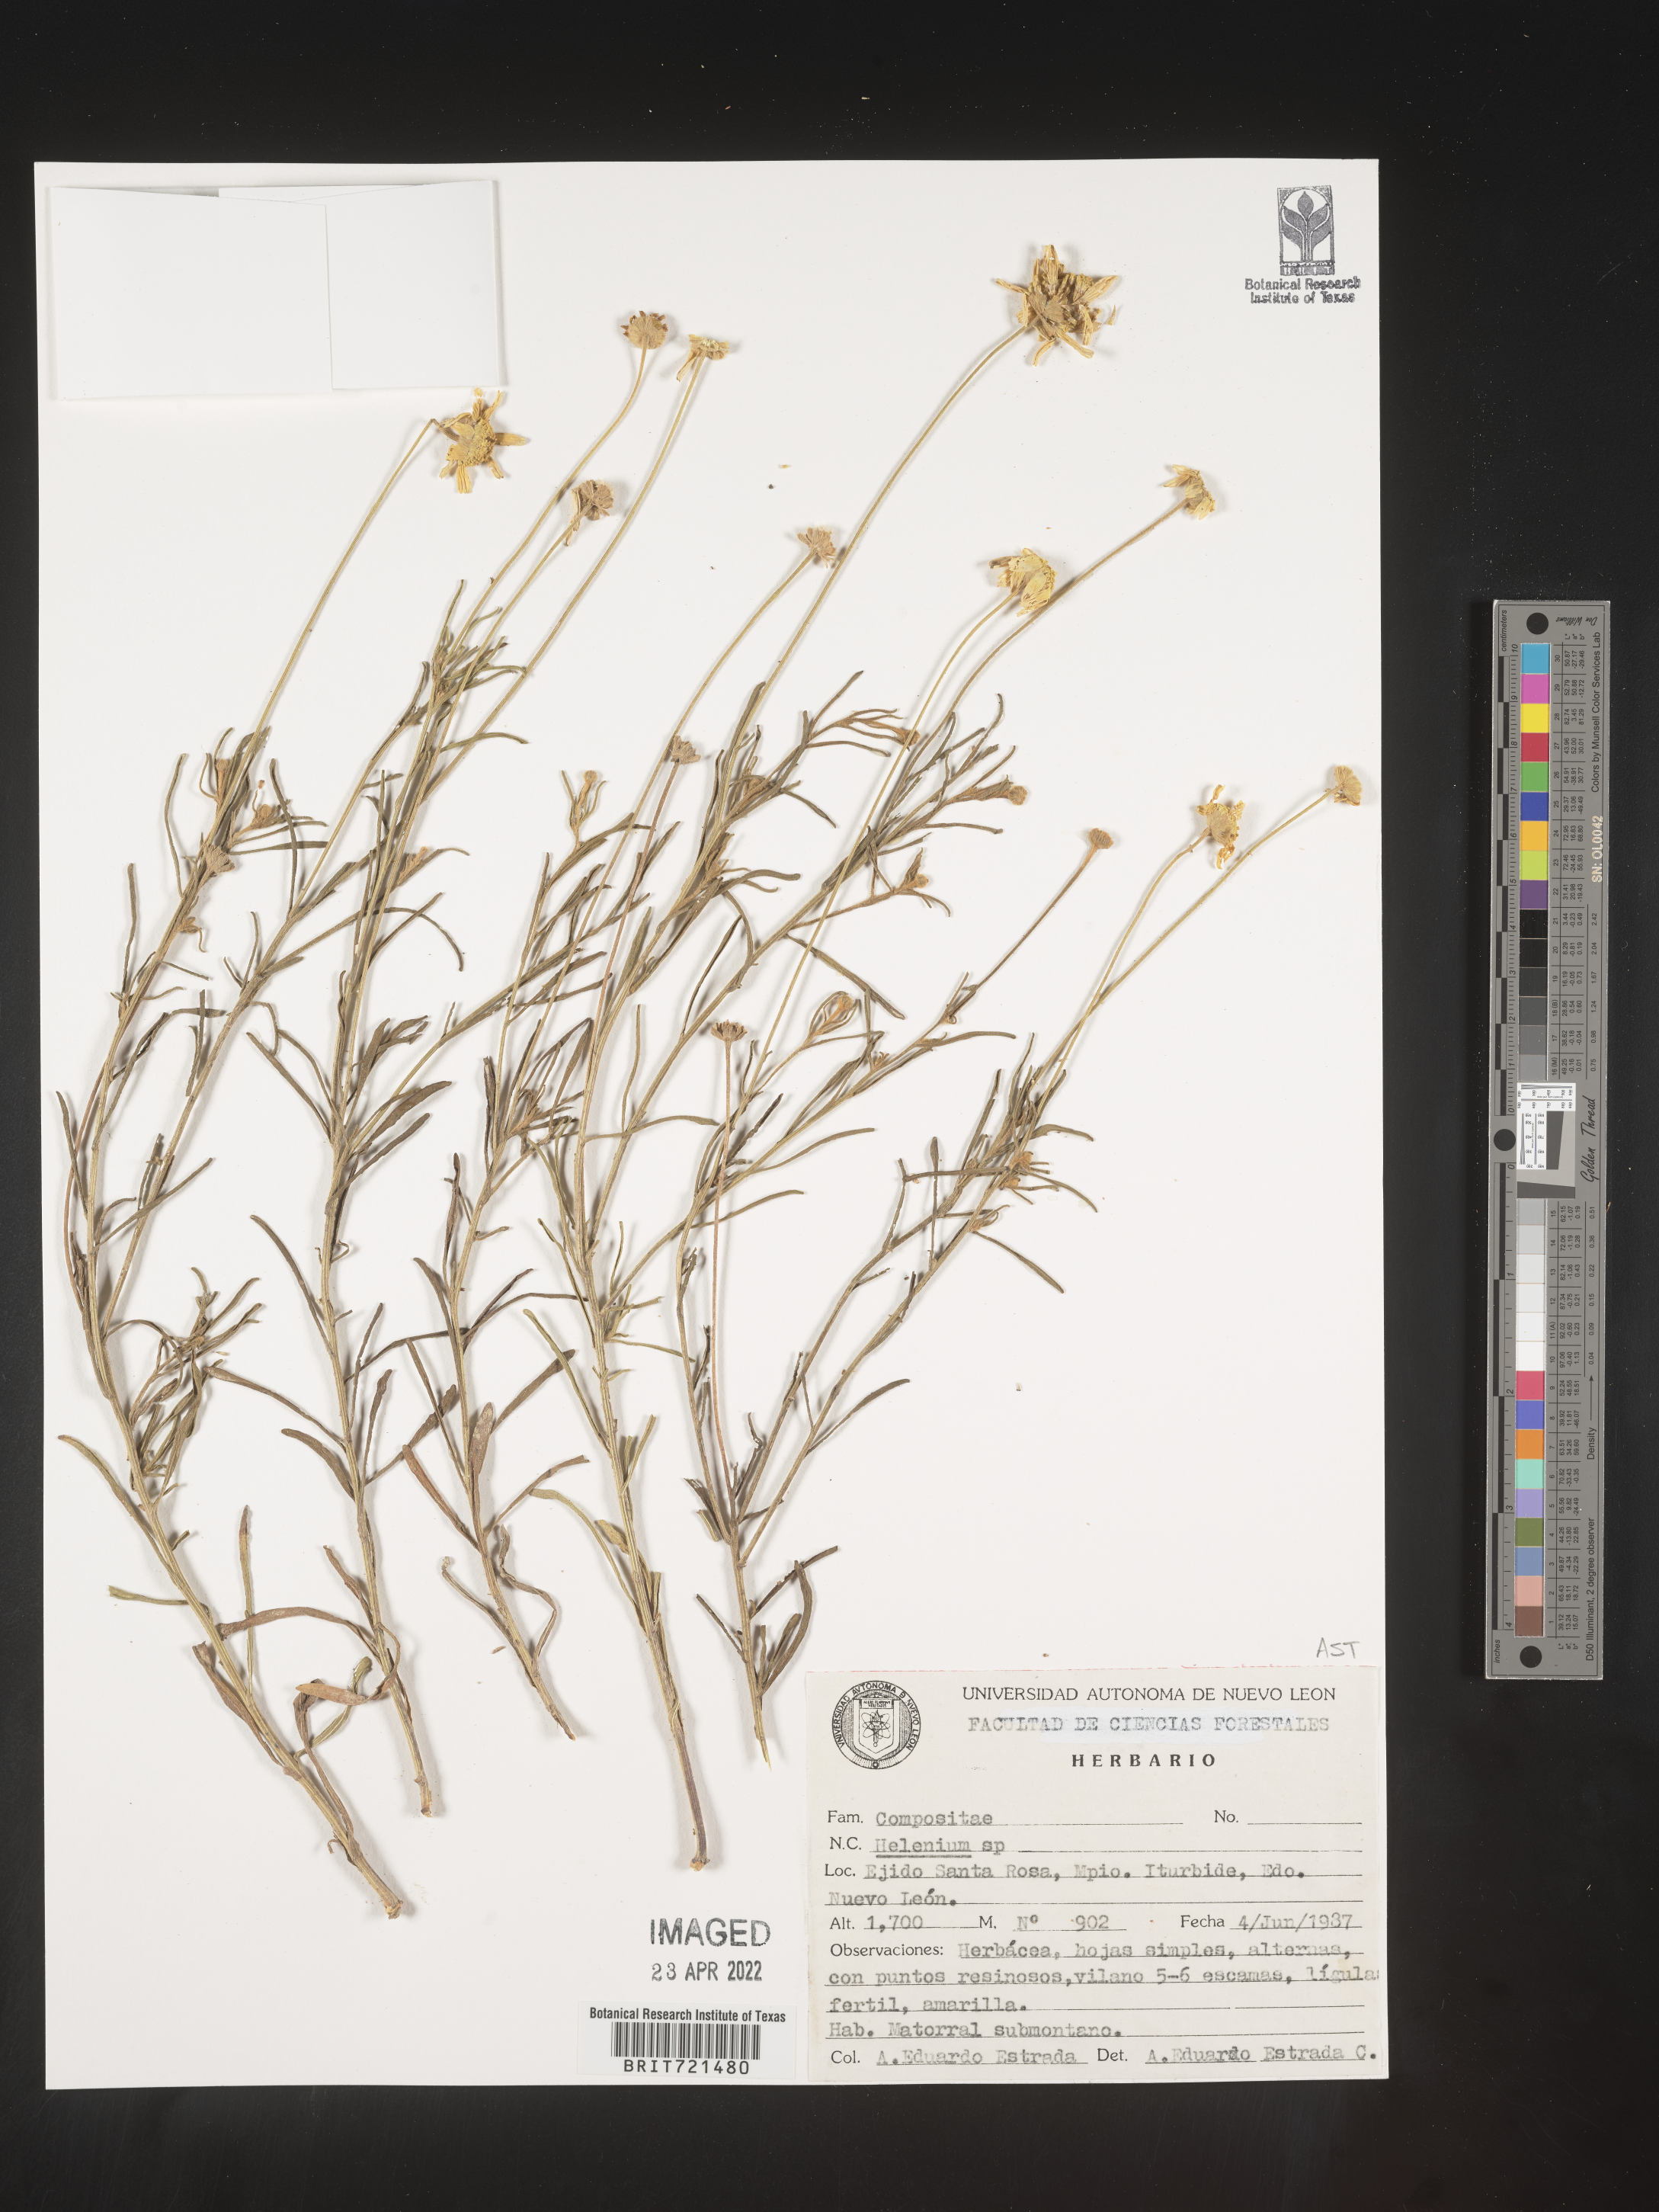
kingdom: Plantae
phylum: Tracheophyta
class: Magnoliopsida
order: Asterales
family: Asteraceae
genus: Helenium
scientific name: Helenium
